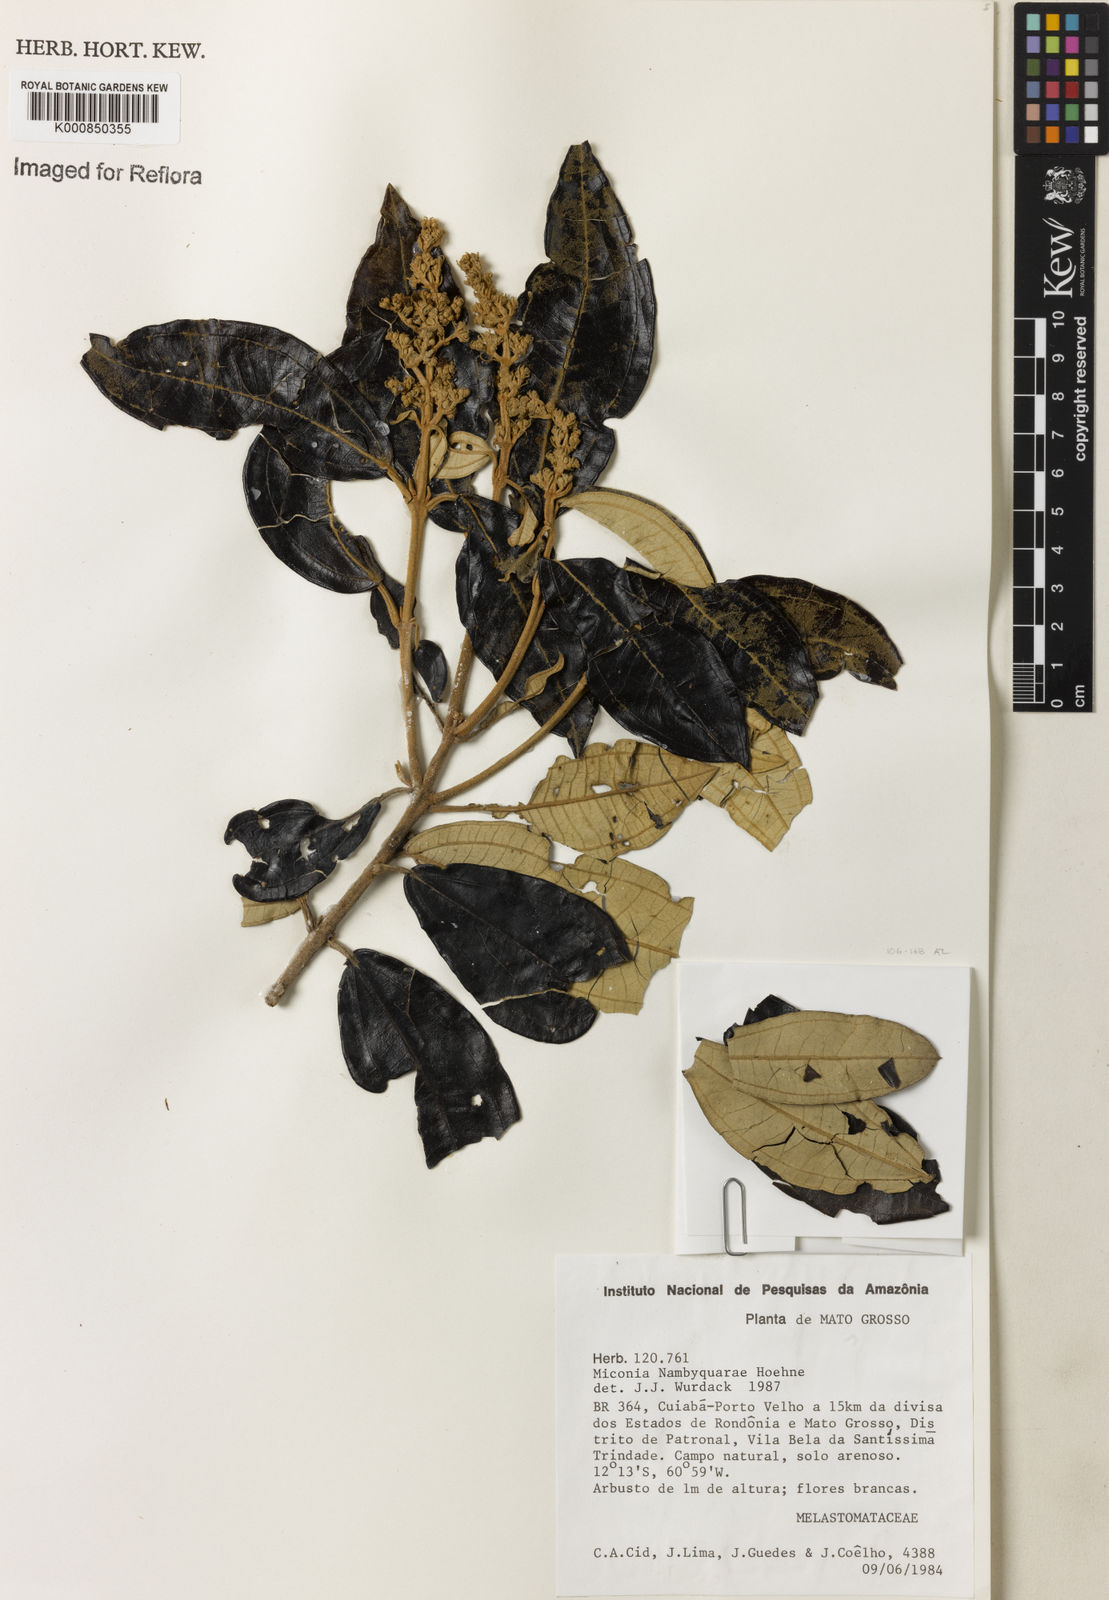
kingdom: Plantae
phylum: Tracheophyta
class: Magnoliopsida
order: Myrtales
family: Melastomataceae
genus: Miconia
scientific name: Miconia nambyquarae
